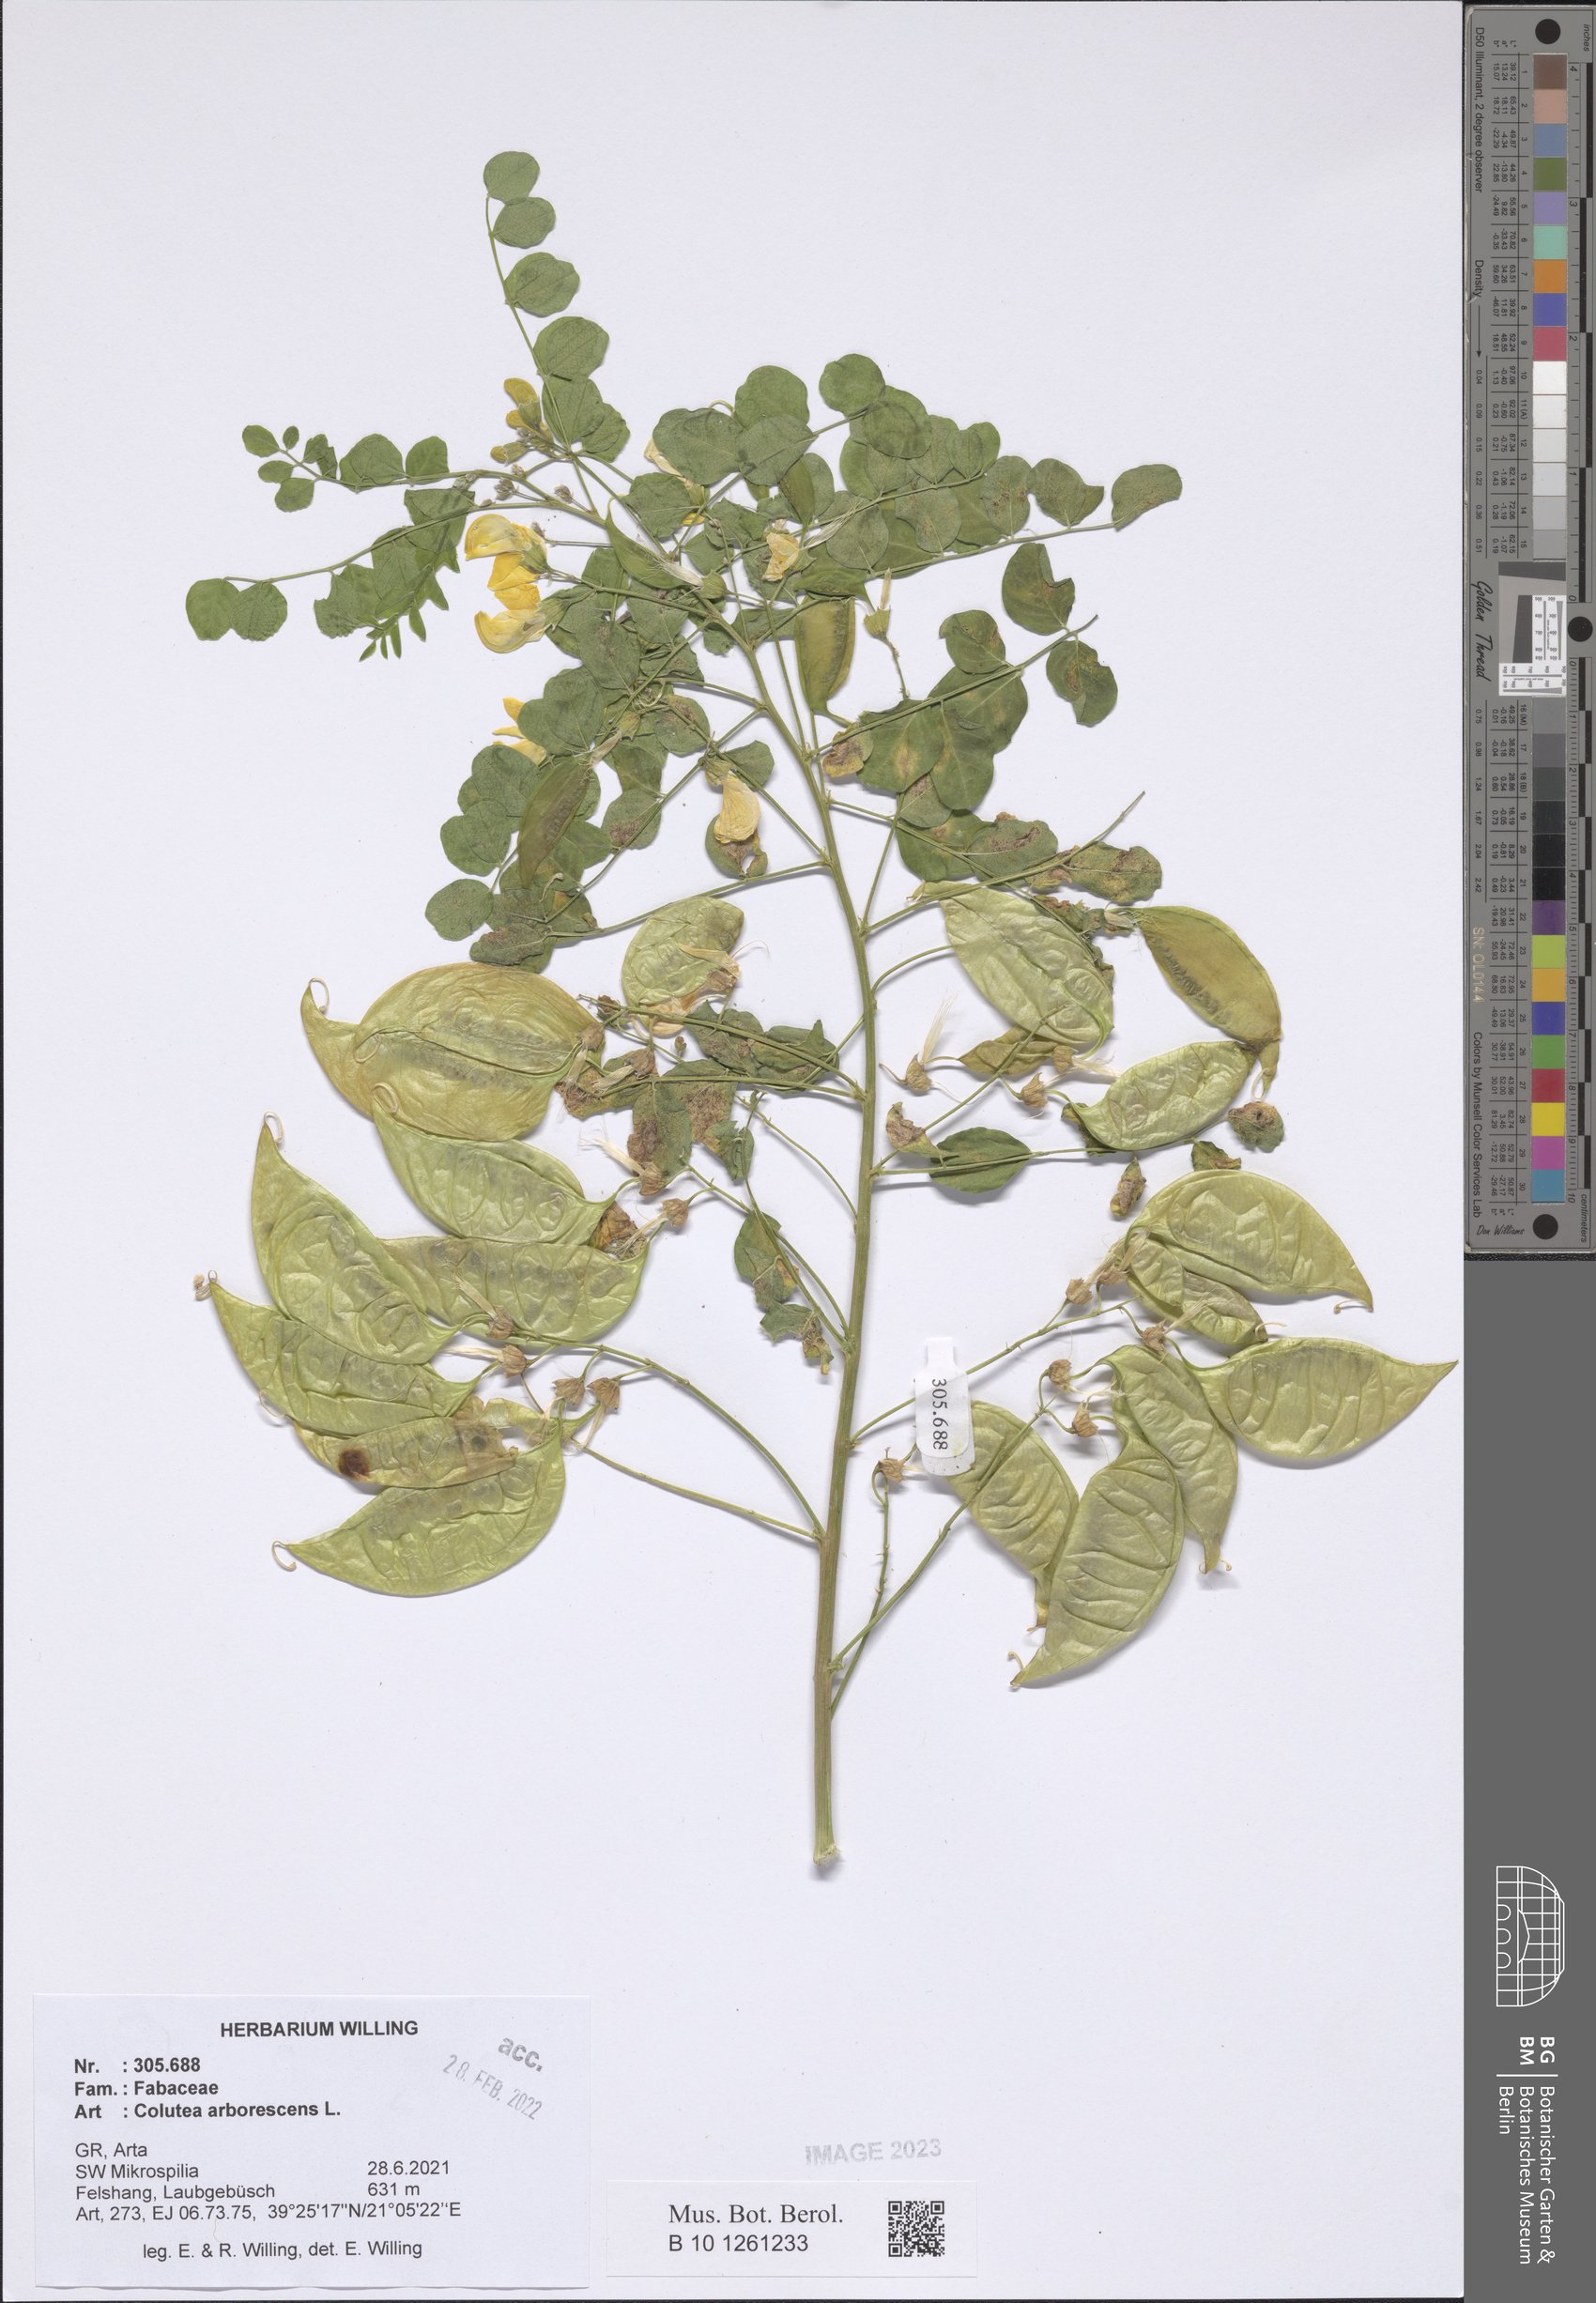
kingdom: Plantae
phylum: Tracheophyta
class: Magnoliopsida
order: Fabales
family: Fabaceae
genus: Colutea
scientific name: Colutea arborescens
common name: Bladder-senna
